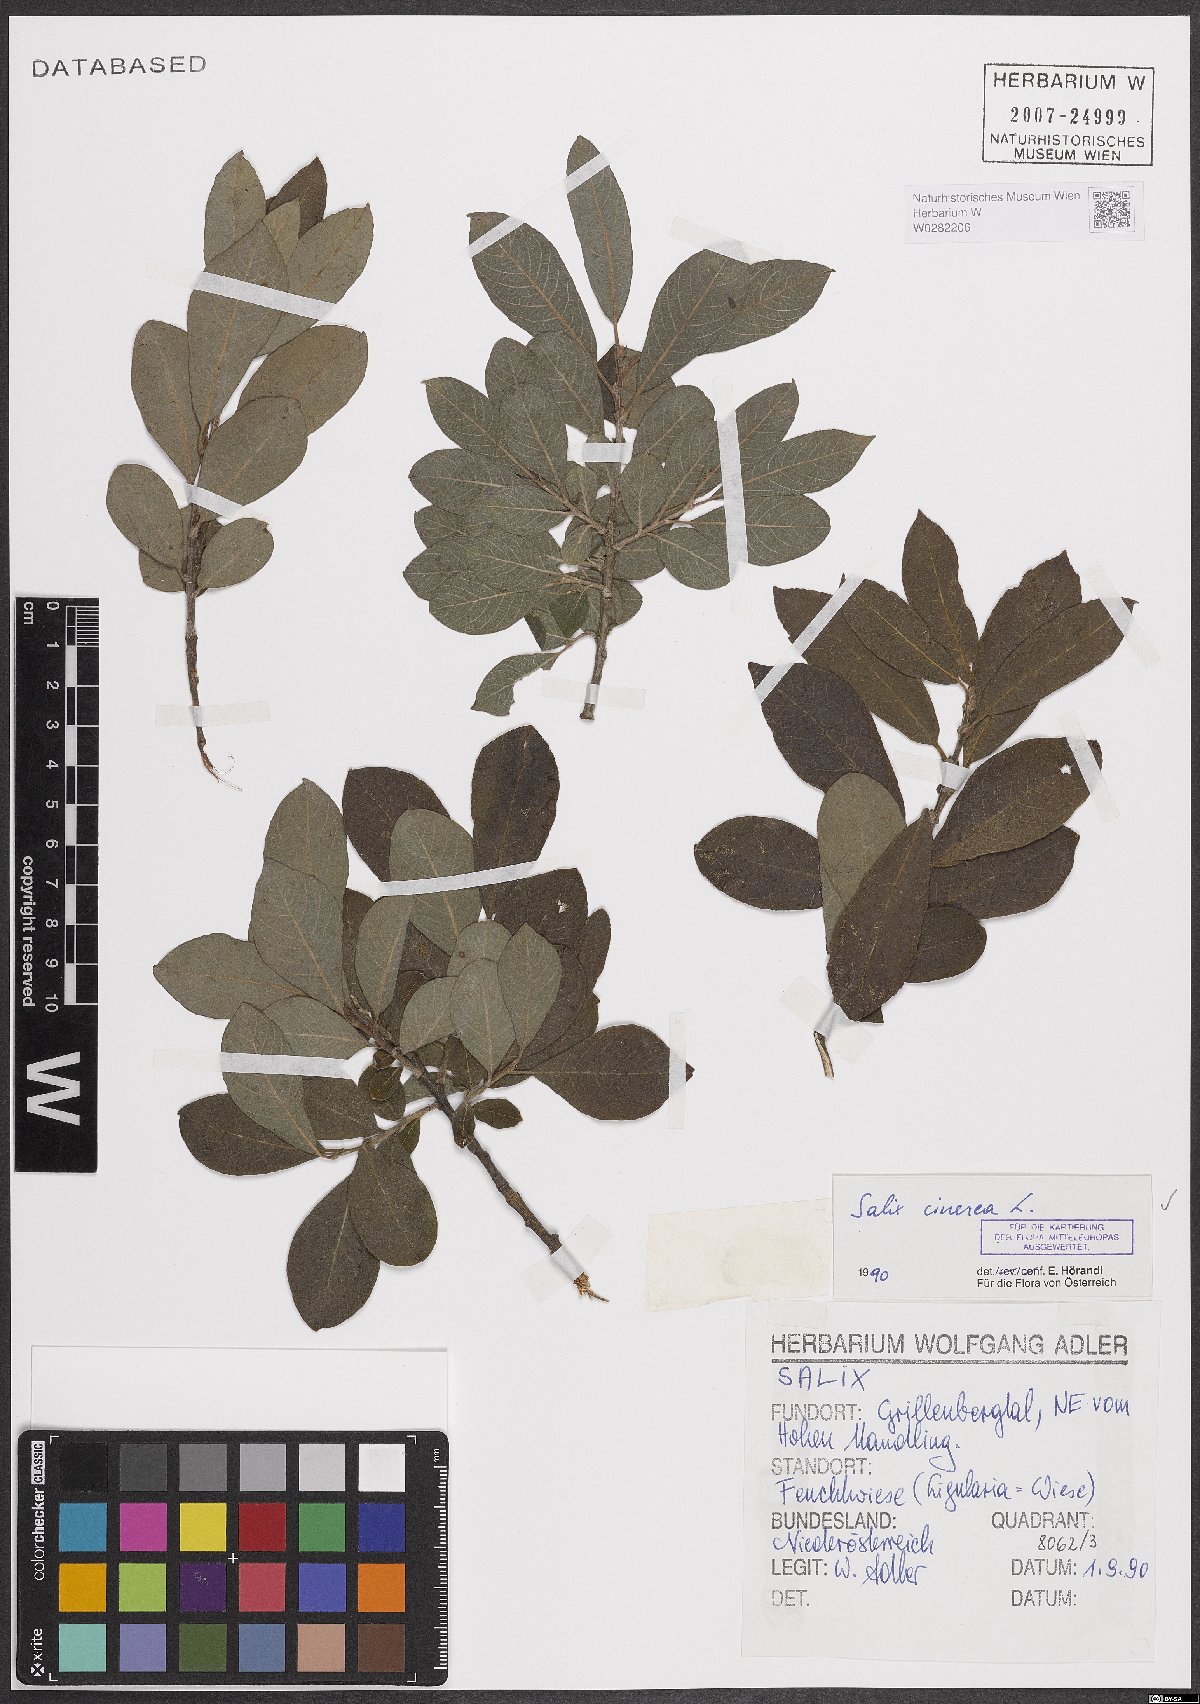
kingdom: Plantae
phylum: Tracheophyta
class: Magnoliopsida
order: Malpighiales
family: Salicaceae
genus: Salix
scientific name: Salix cinerea
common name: Common sallow
